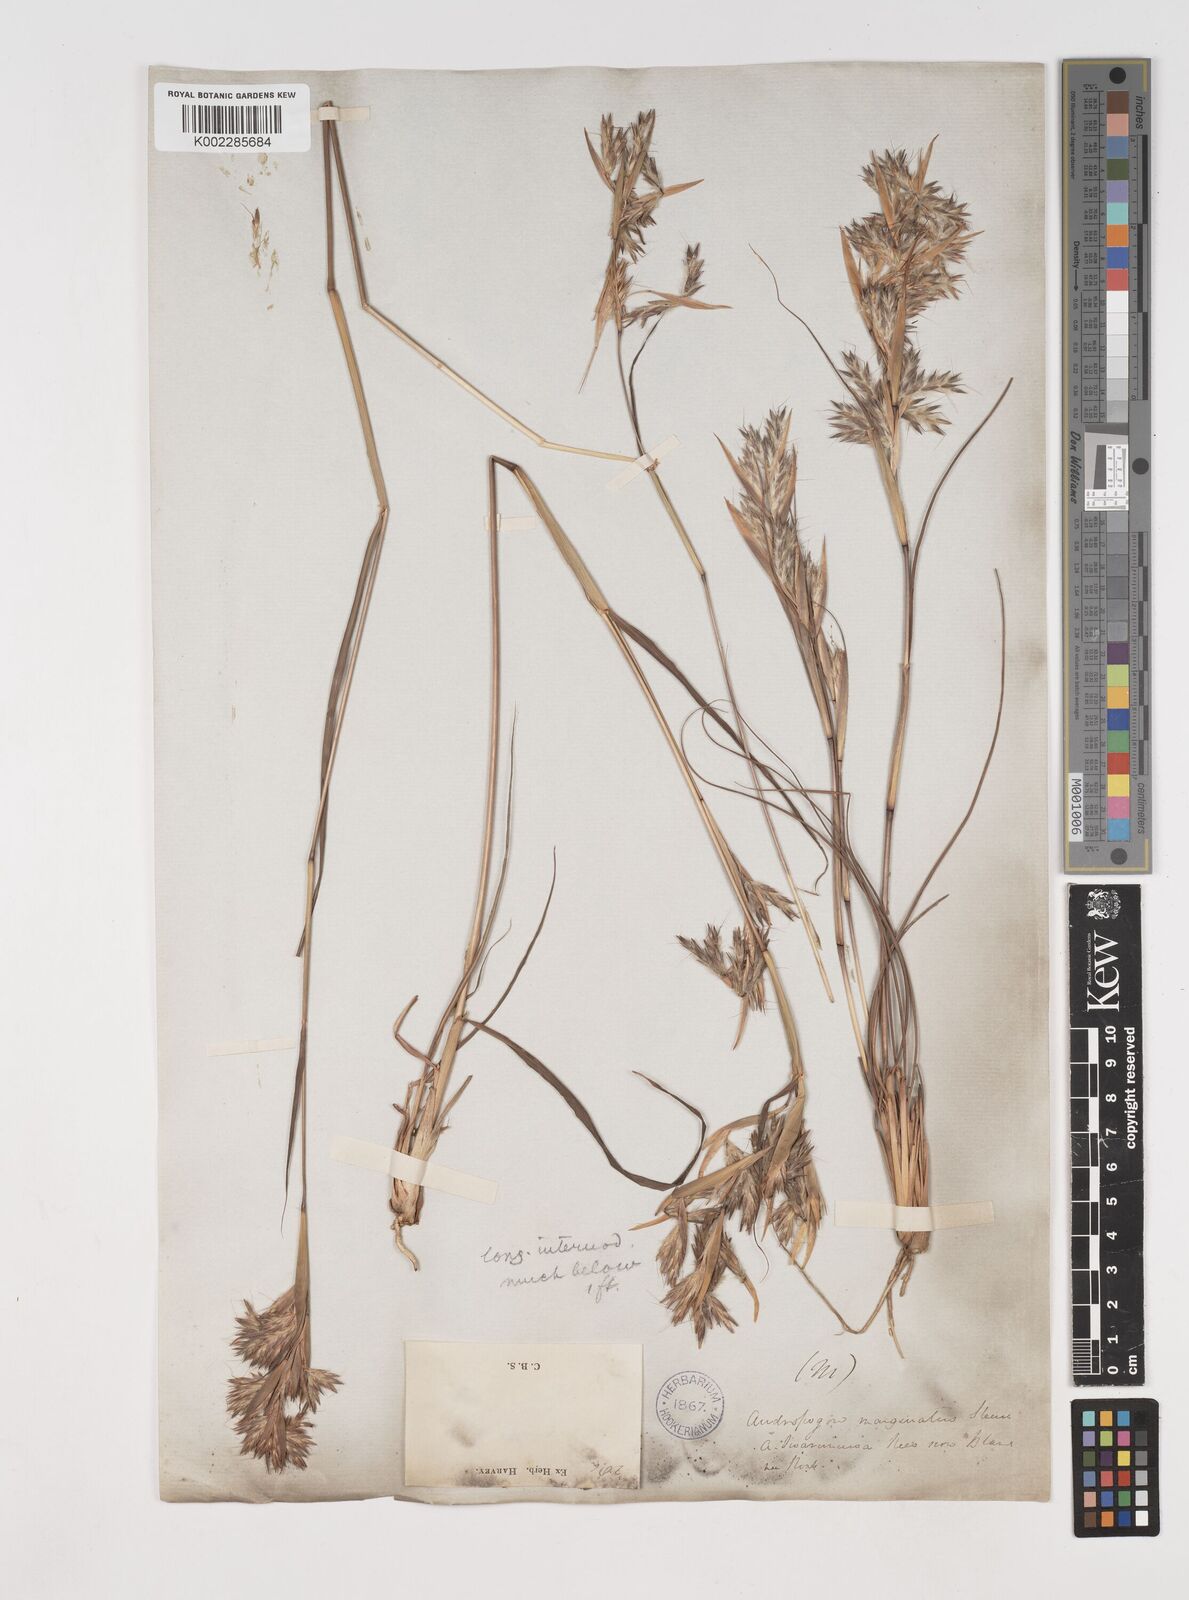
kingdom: Plantae
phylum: Tracheophyta
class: Liliopsida
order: Poales
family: Poaceae
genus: Cymbopogon
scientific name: Cymbopogon marginatus
